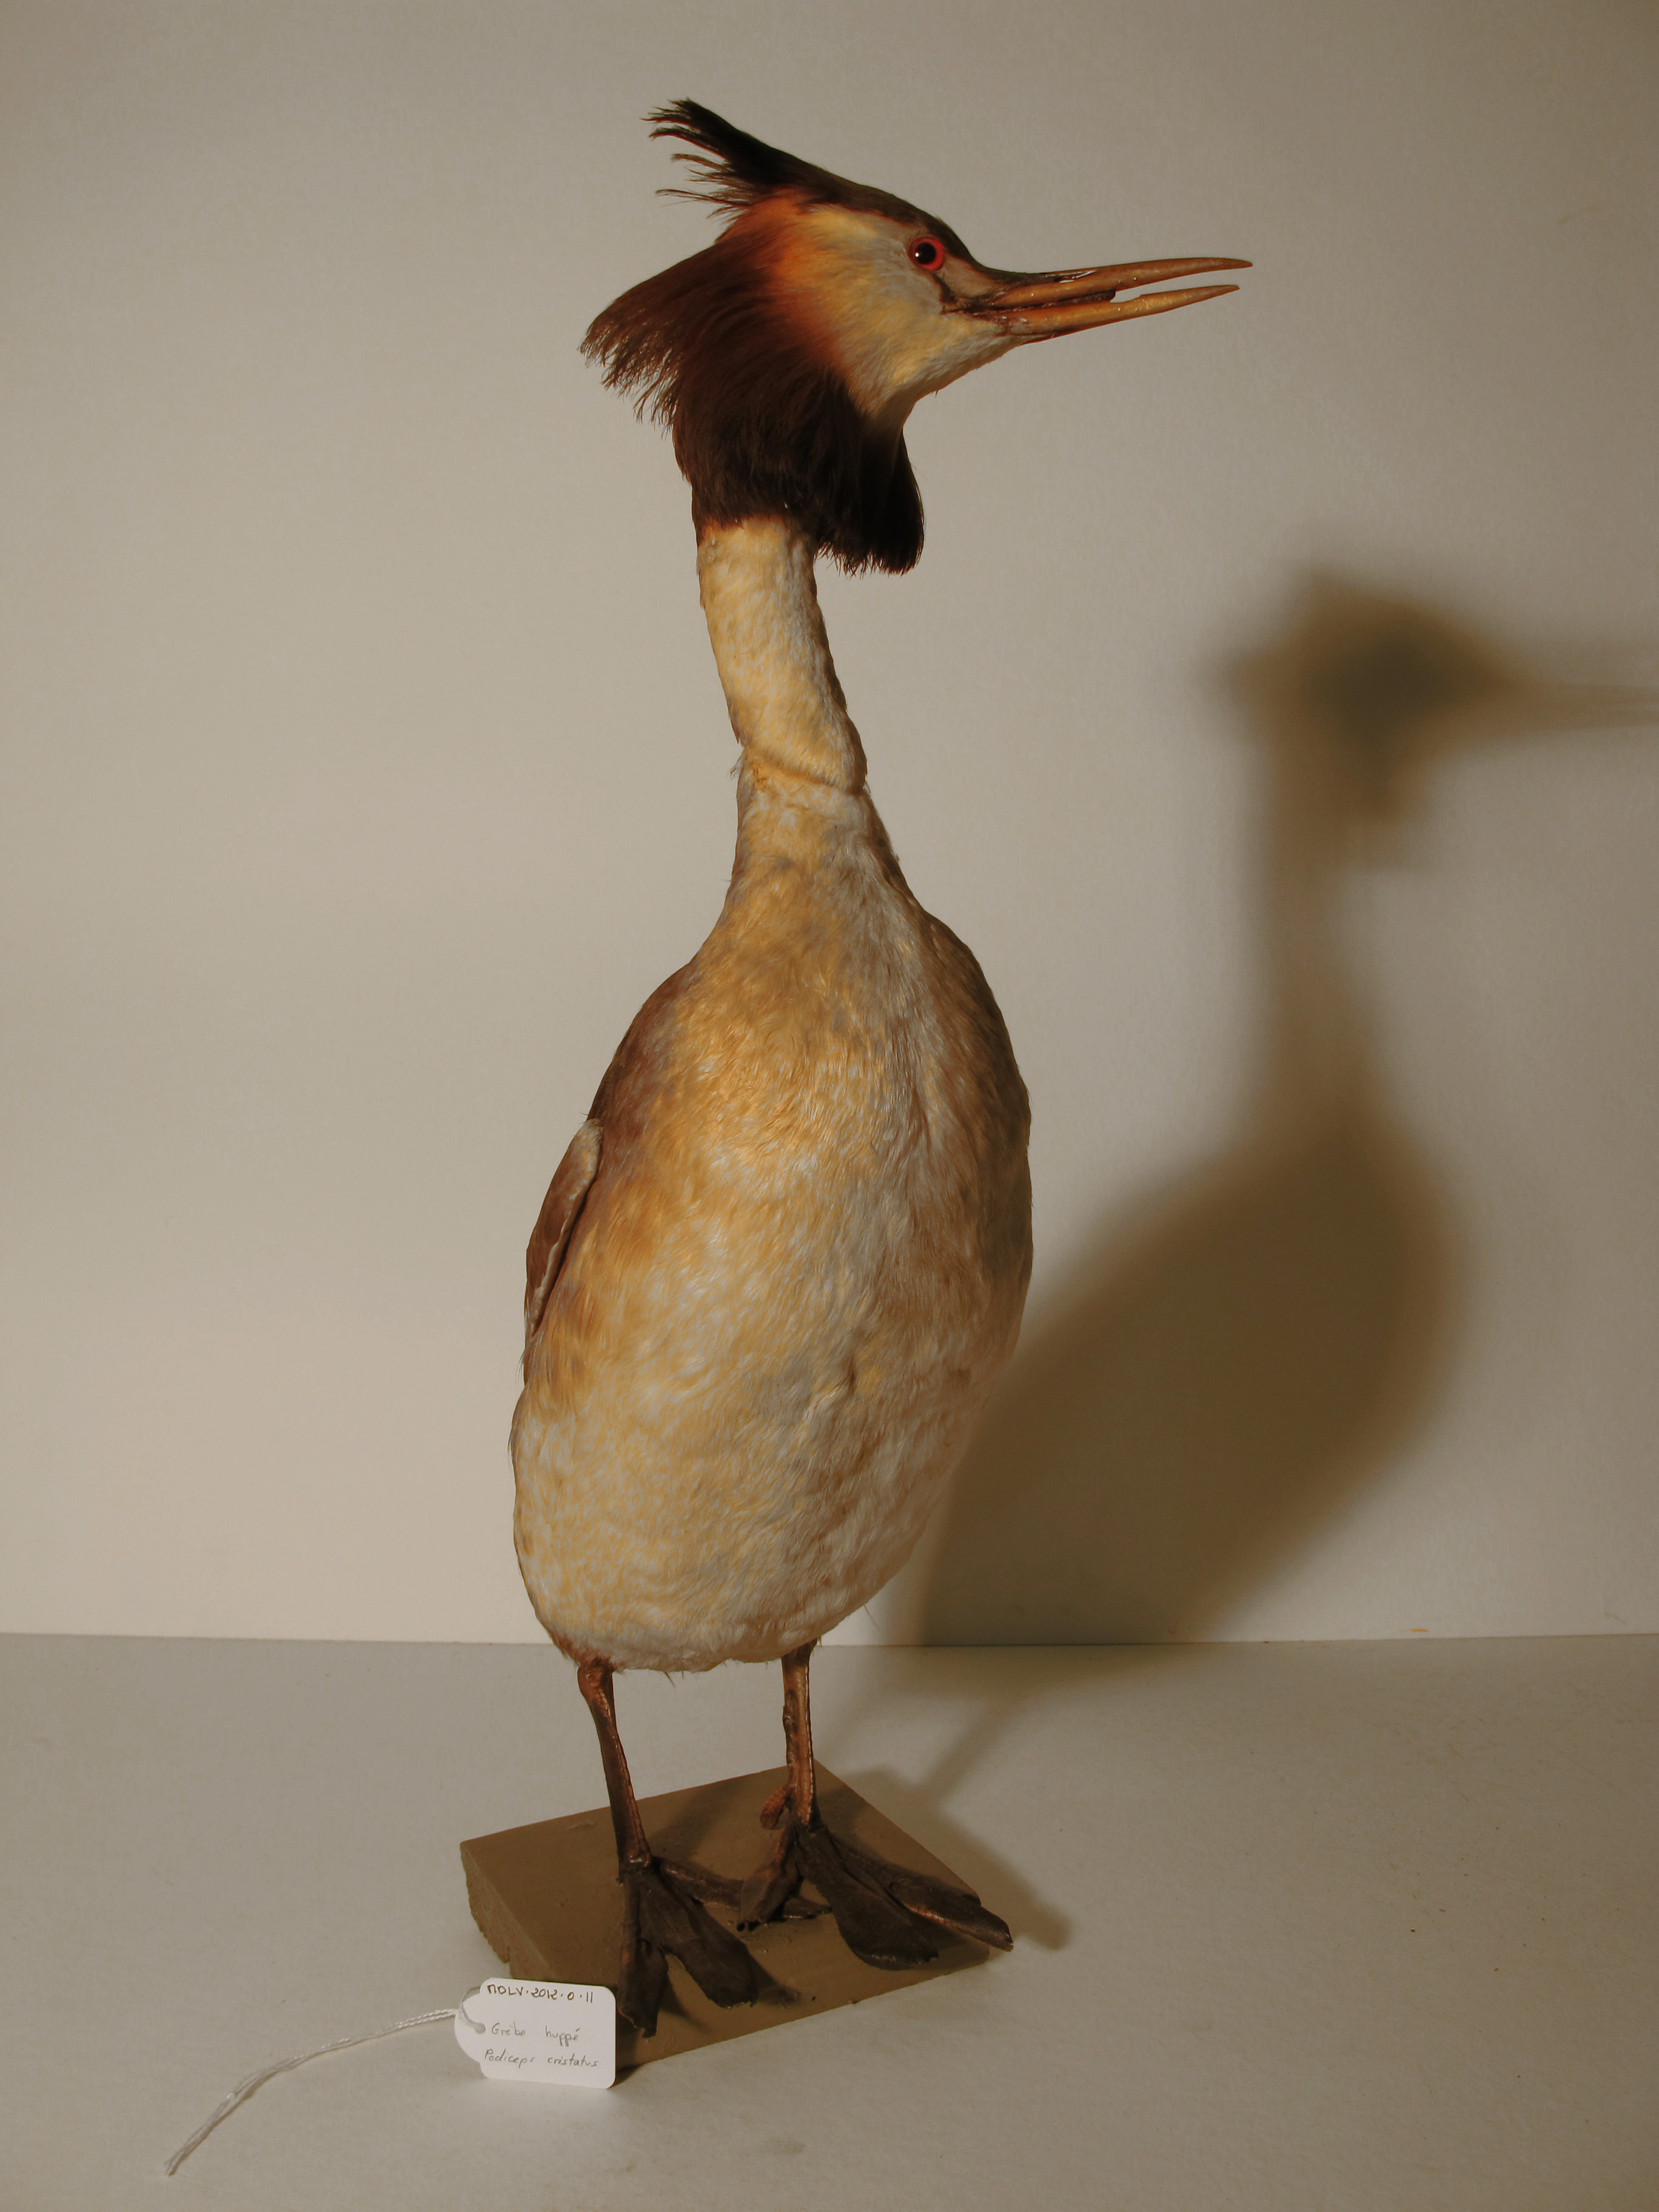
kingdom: Animalia
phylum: Chordata
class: Aves
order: Podicipediformes
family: Podicipedidae
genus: Podiceps
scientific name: Podiceps cristatus
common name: Great Crested grebe
